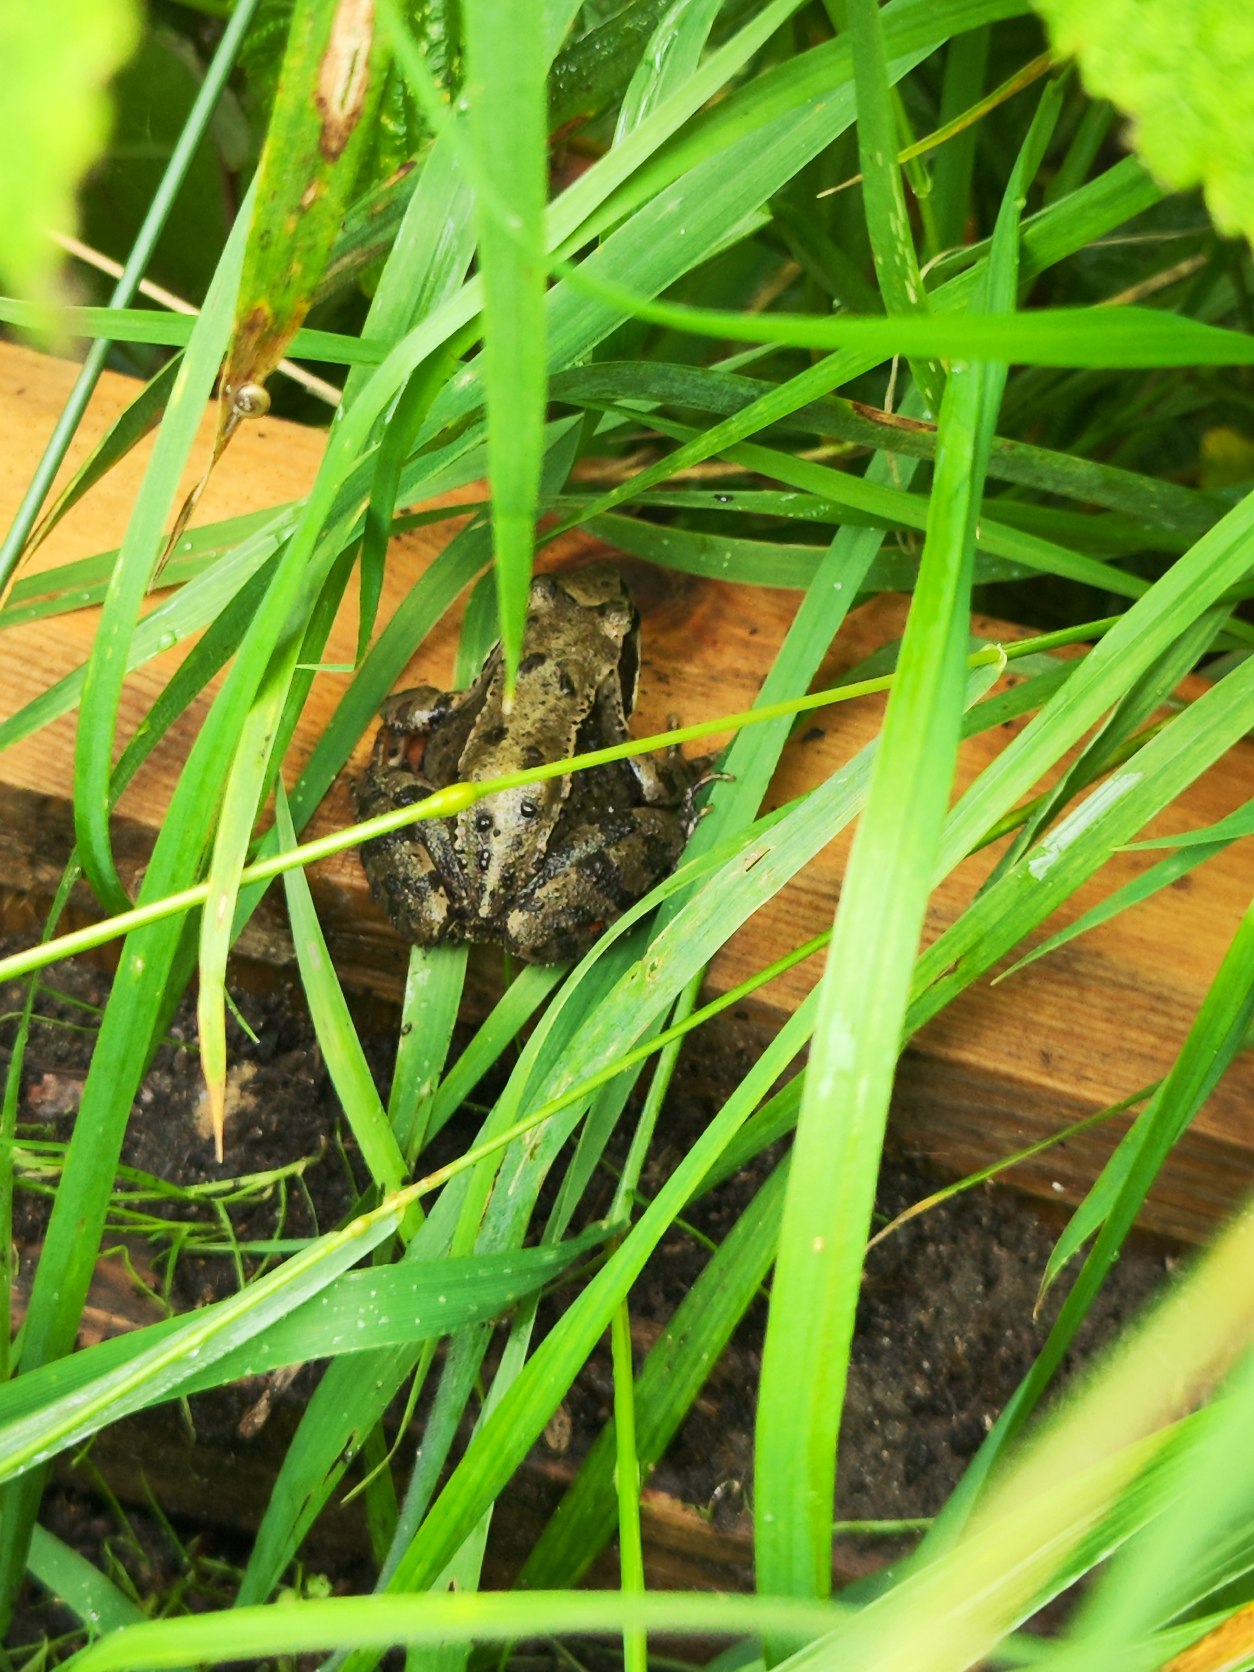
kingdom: Animalia
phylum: Chordata
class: Amphibia
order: Anura
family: Ranidae
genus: Rana
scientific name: Rana temporaria
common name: Butsnudet frø
